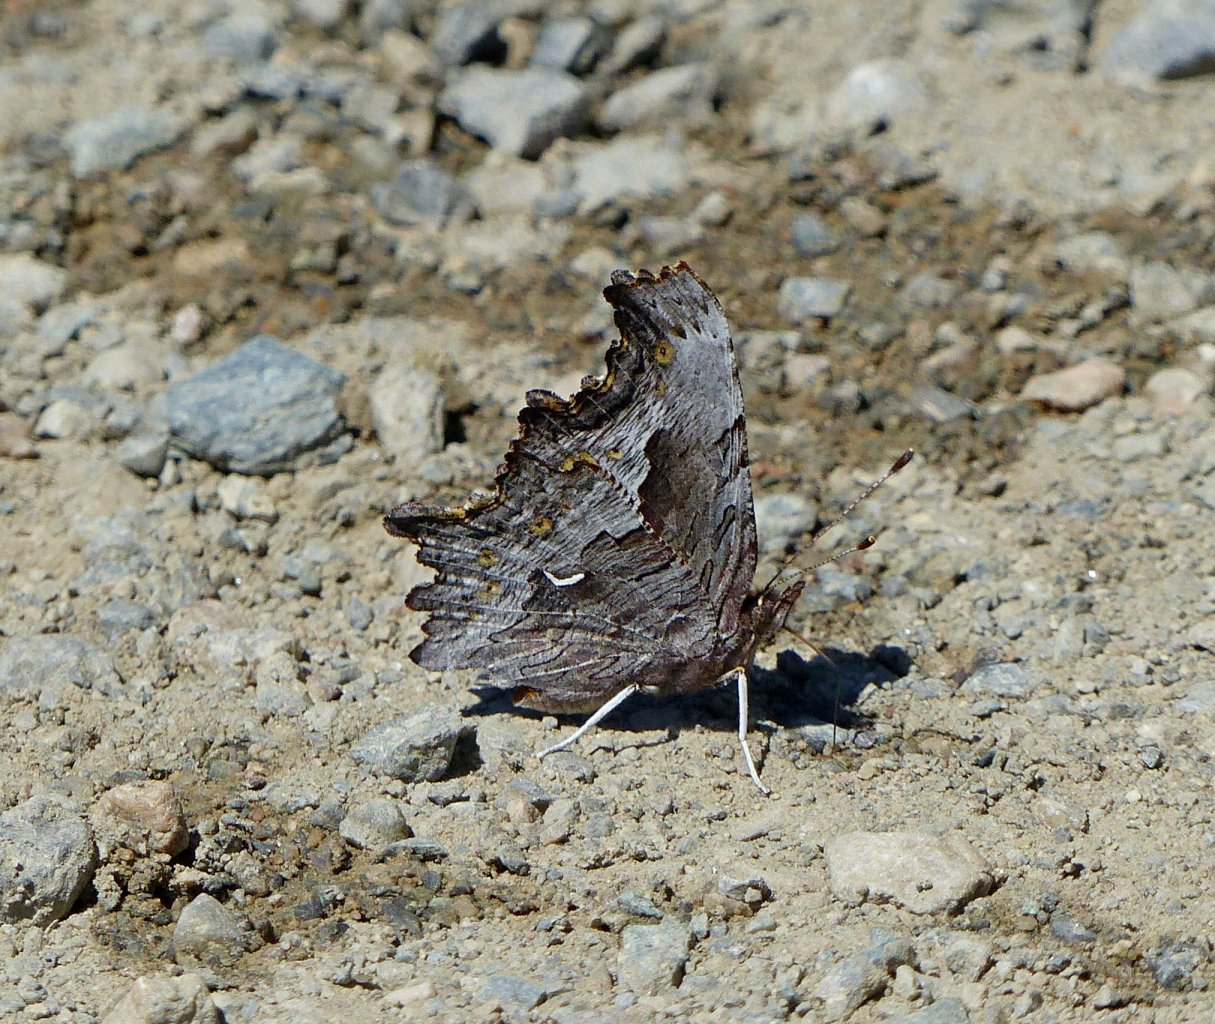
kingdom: Animalia
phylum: Arthropoda
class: Insecta
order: Lepidoptera
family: Nymphalidae
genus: Polygonia
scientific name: Polygonia gracilis
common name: Hoary Comma
